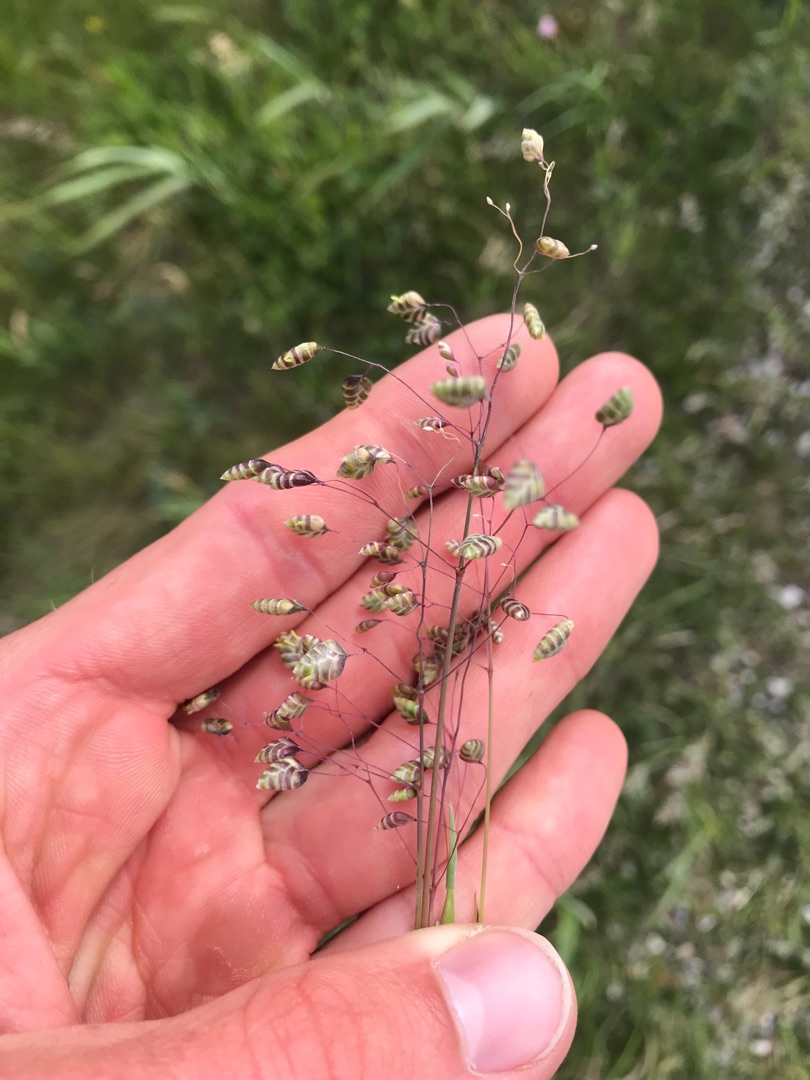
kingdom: Plantae
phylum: Tracheophyta
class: Liliopsida
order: Poales
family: Poaceae
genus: Briza
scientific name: Briza media
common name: Hjertegræs
